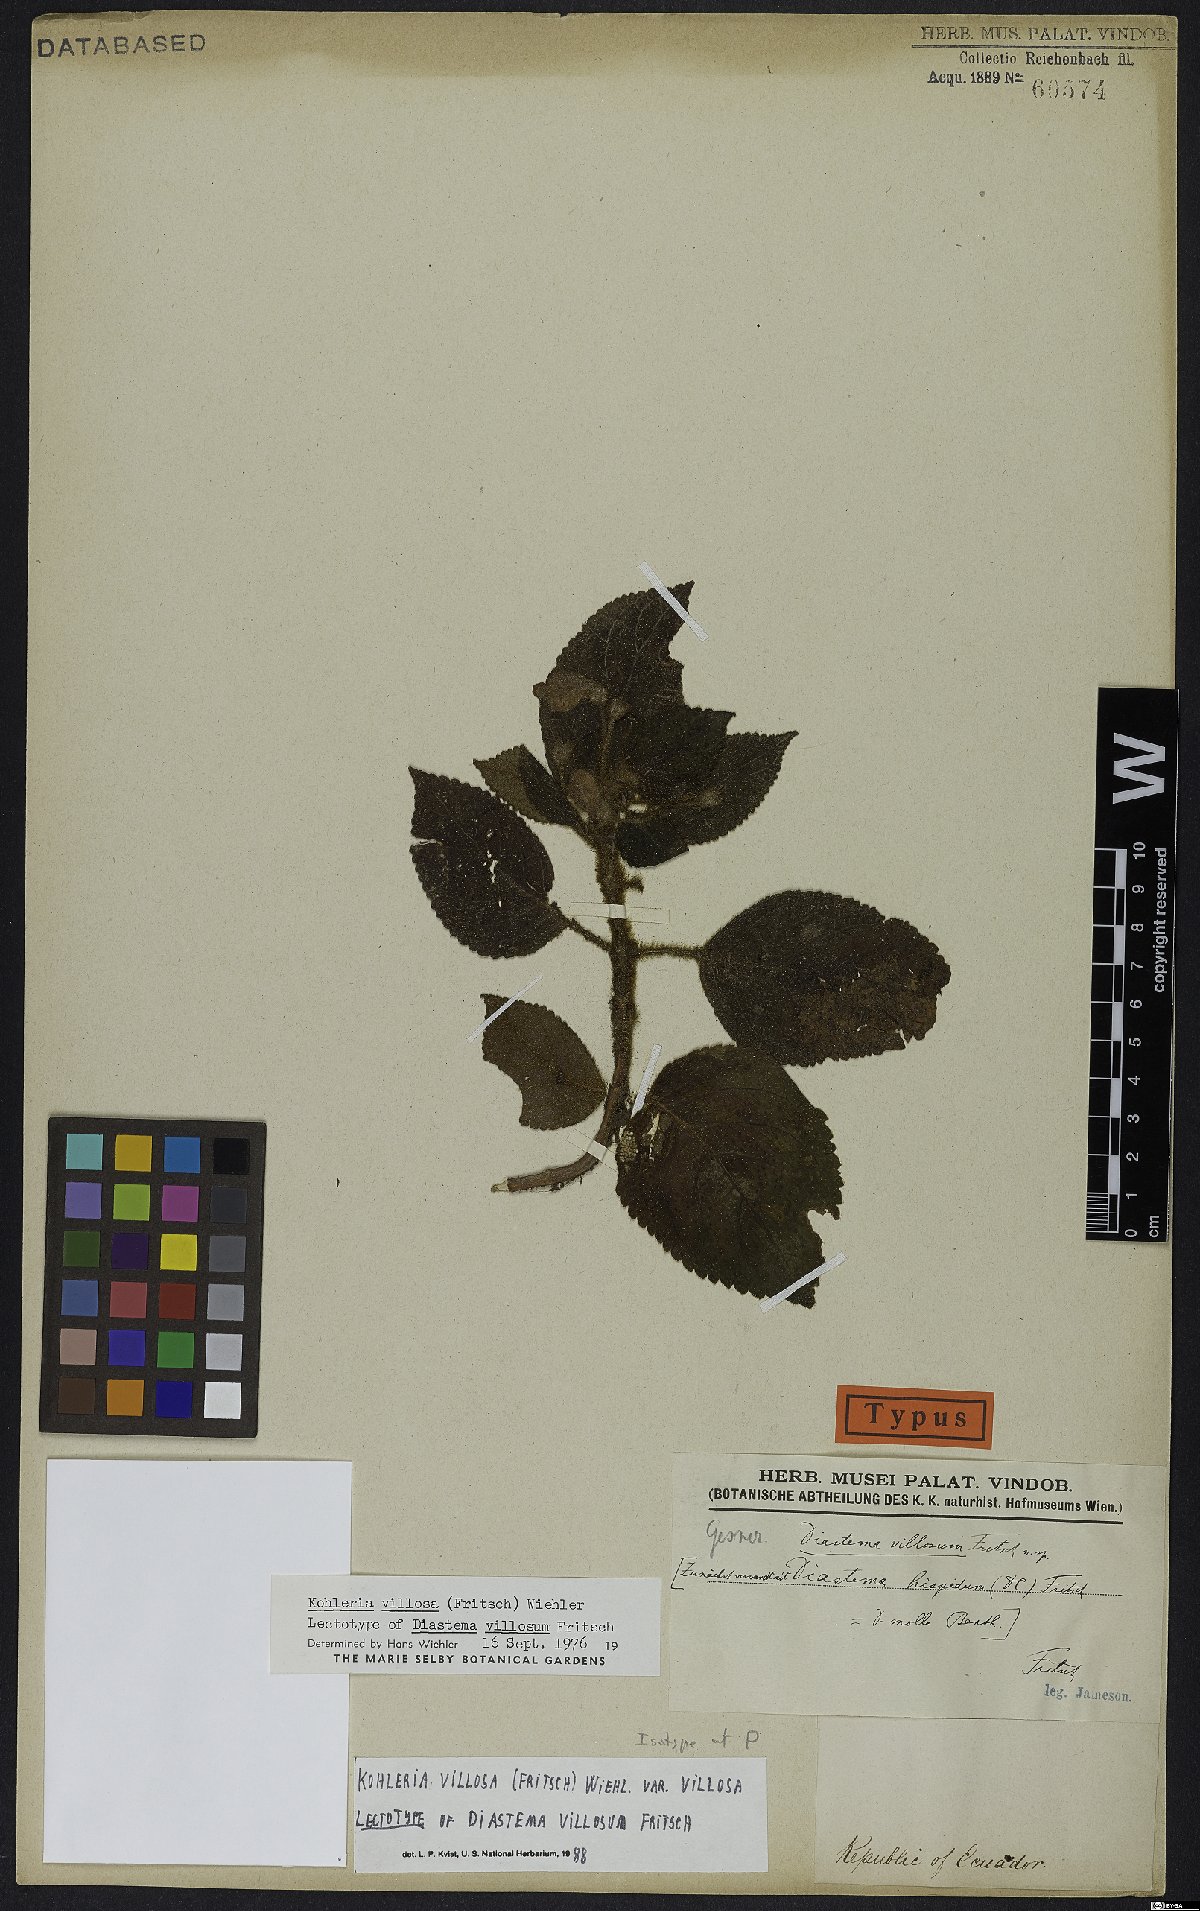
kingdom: Plantae
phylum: Tracheophyta
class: Magnoliopsida
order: Lamiales
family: Gesneriaceae
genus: Kohleria
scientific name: Kohleria villosa
